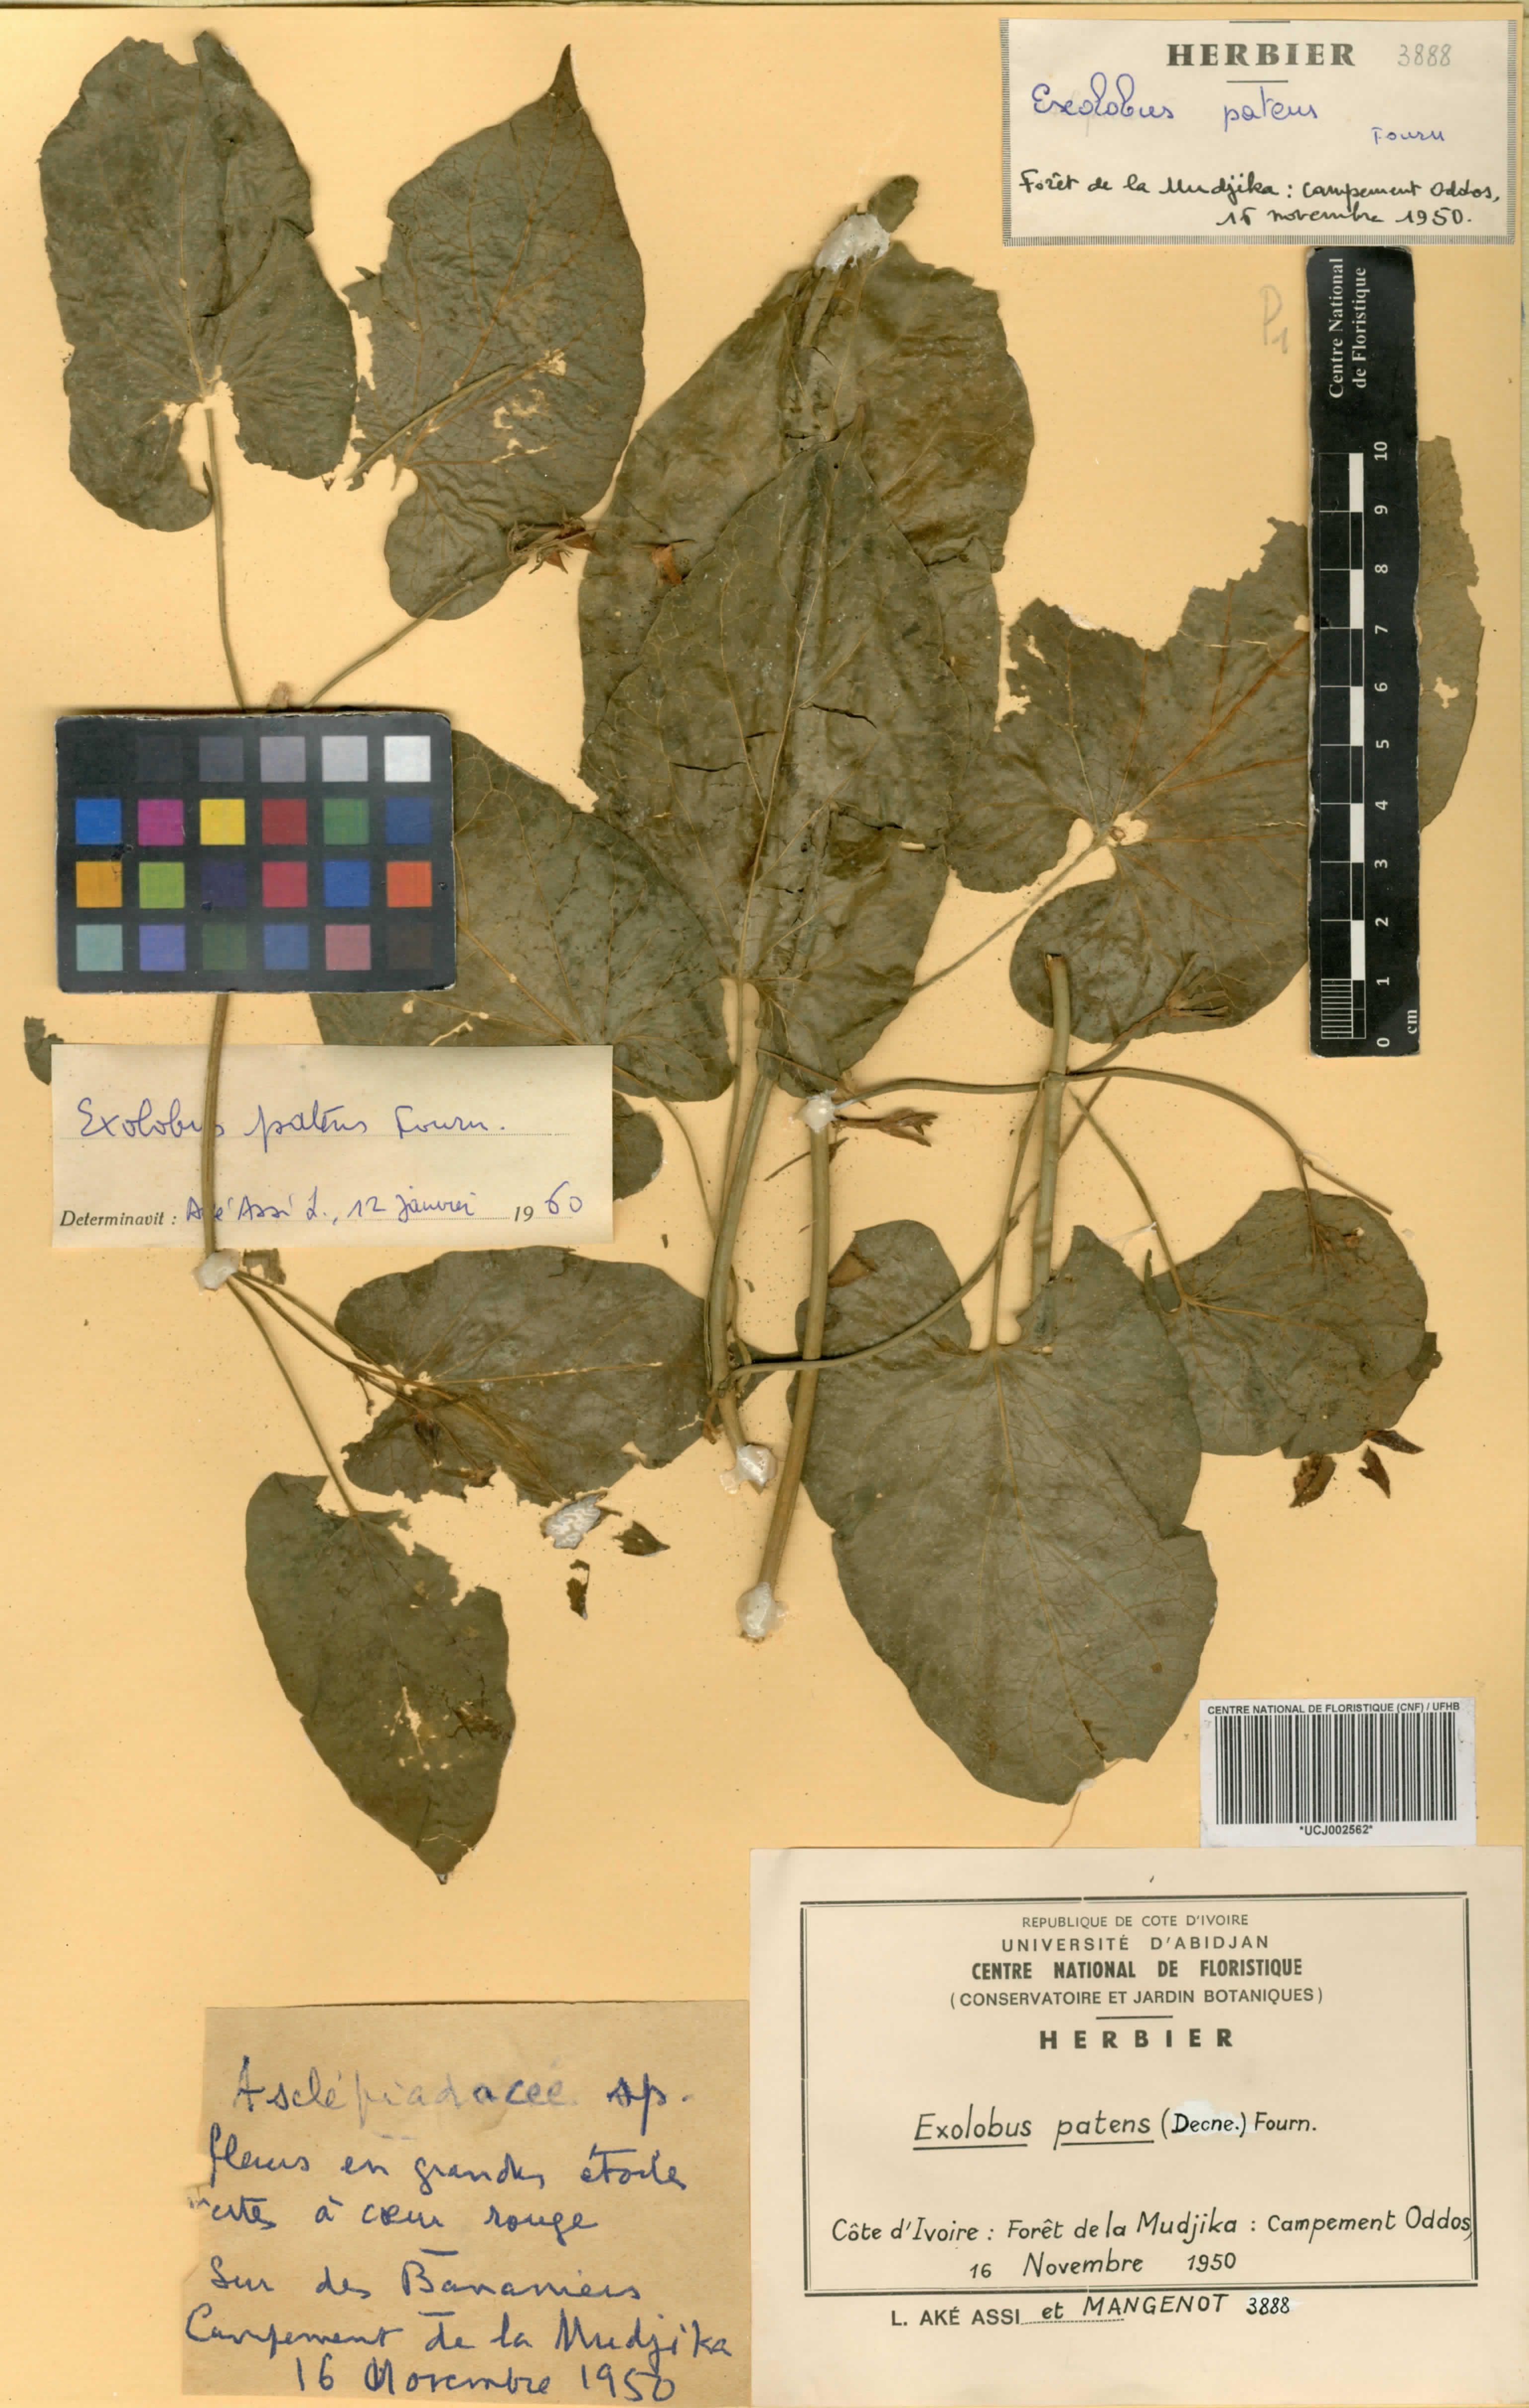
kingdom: Plantae
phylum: Tracheophyta
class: Magnoliopsida
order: Gentianales
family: Apocynaceae
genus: Gonolobus
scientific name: Gonolobus rostratus
